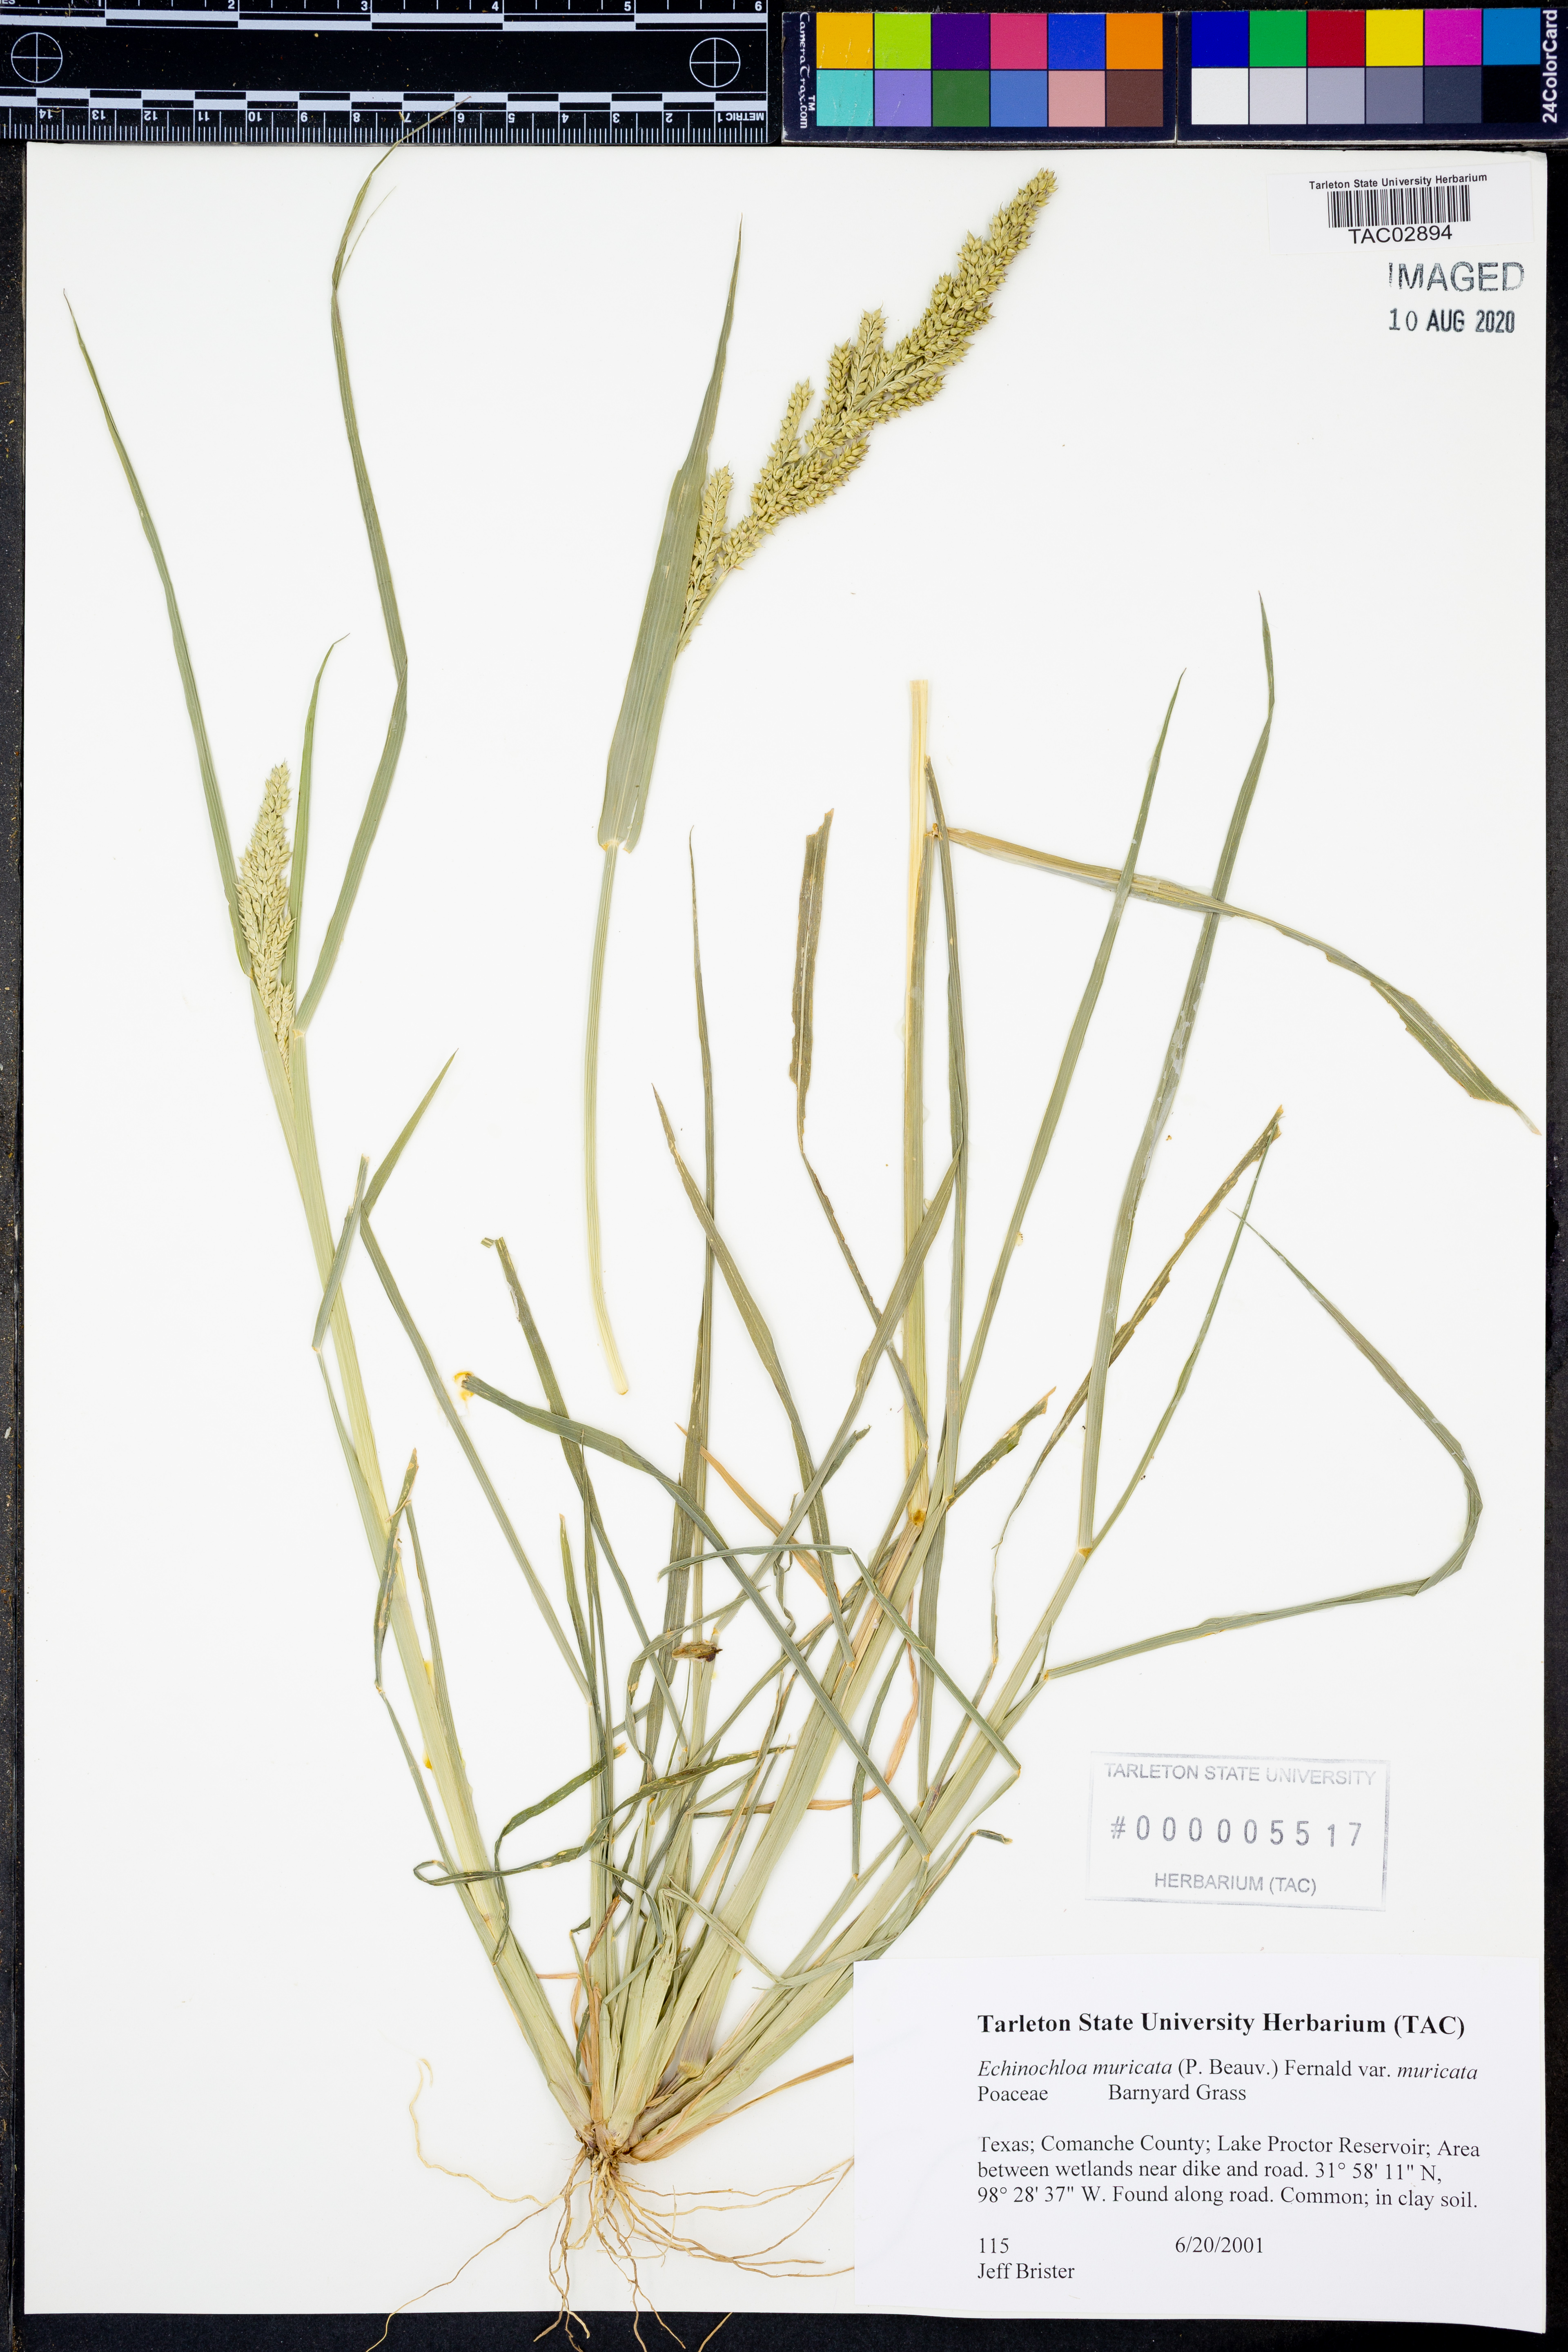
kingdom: Plantae
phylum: Tracheophyta
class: Liliopsida
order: Poales
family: Poaceae
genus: Echinochloa
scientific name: Echinochloa muricata
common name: American barnyard grass
